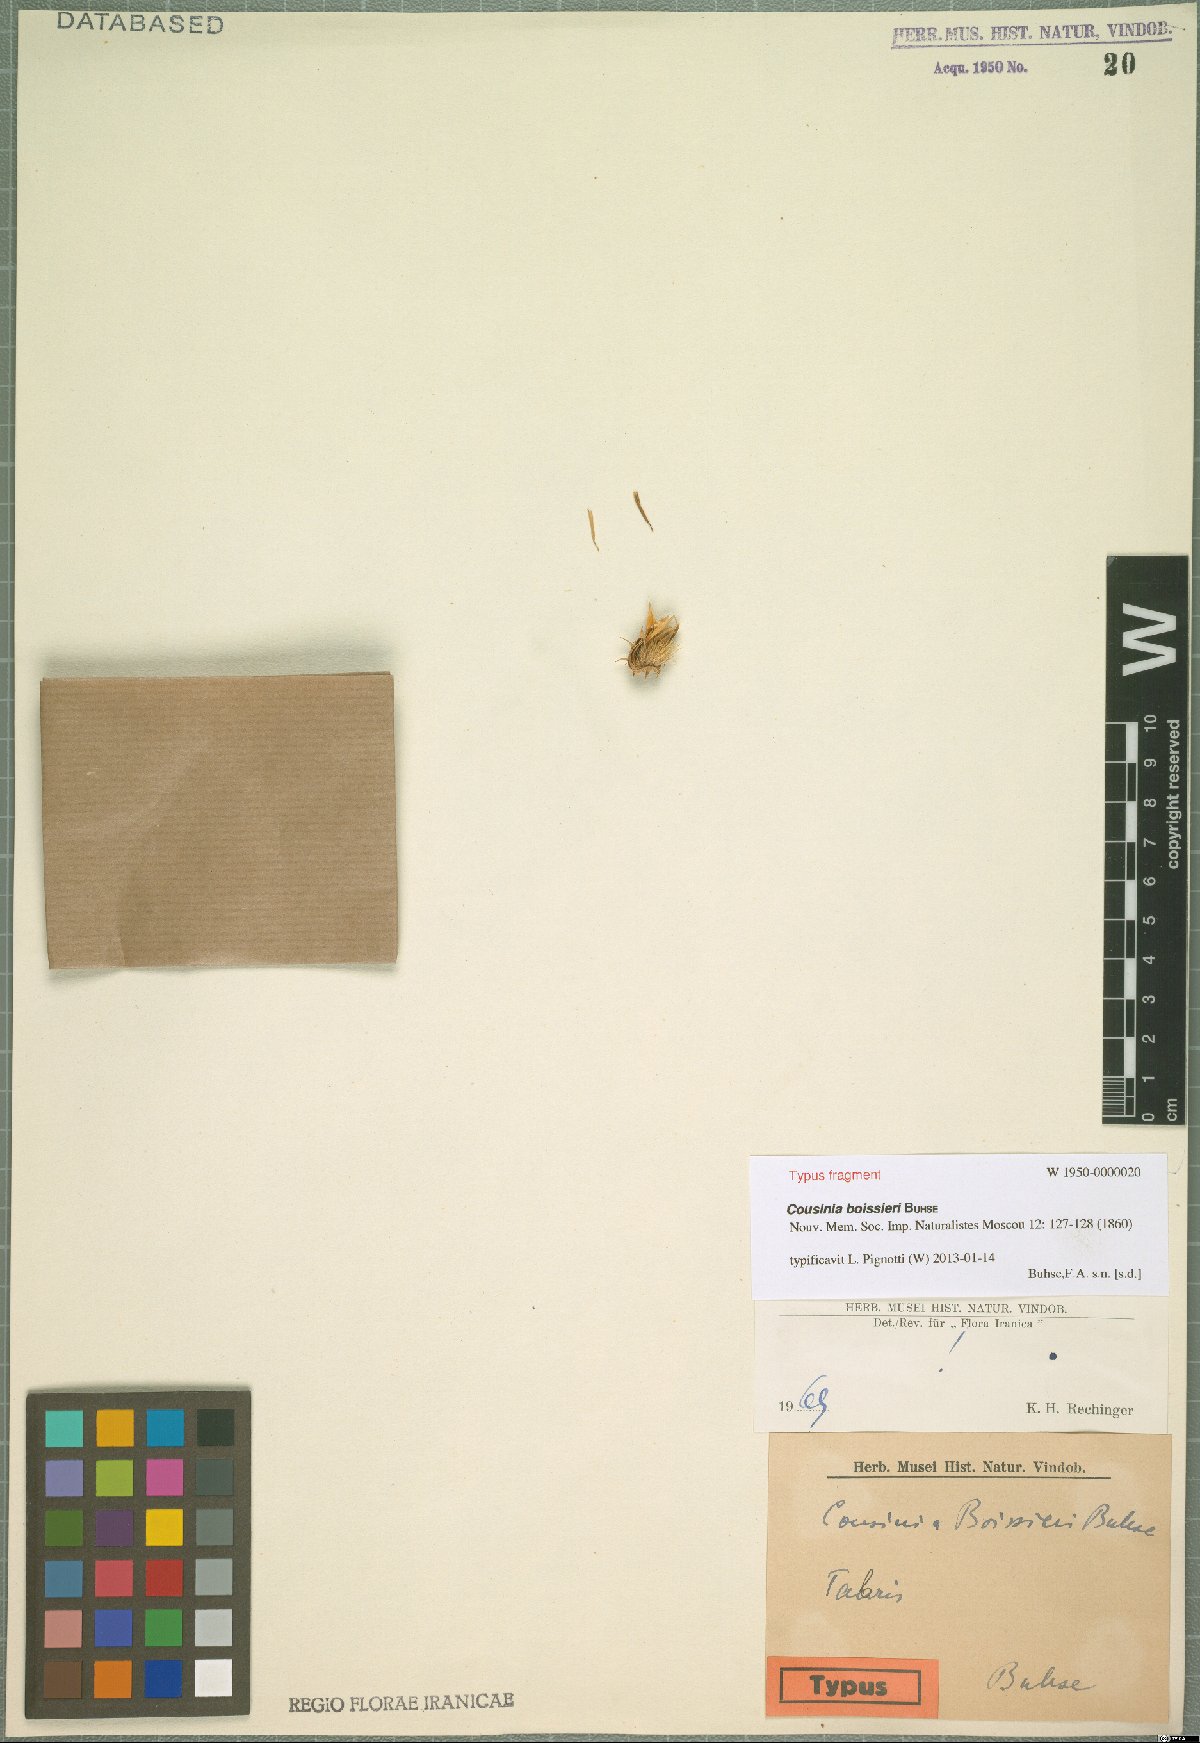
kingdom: Plantae
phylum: Tracheophyta
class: Magnoliopsida
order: Asterales
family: Asteraceae
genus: Cousinia
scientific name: Cousinia boissieri
